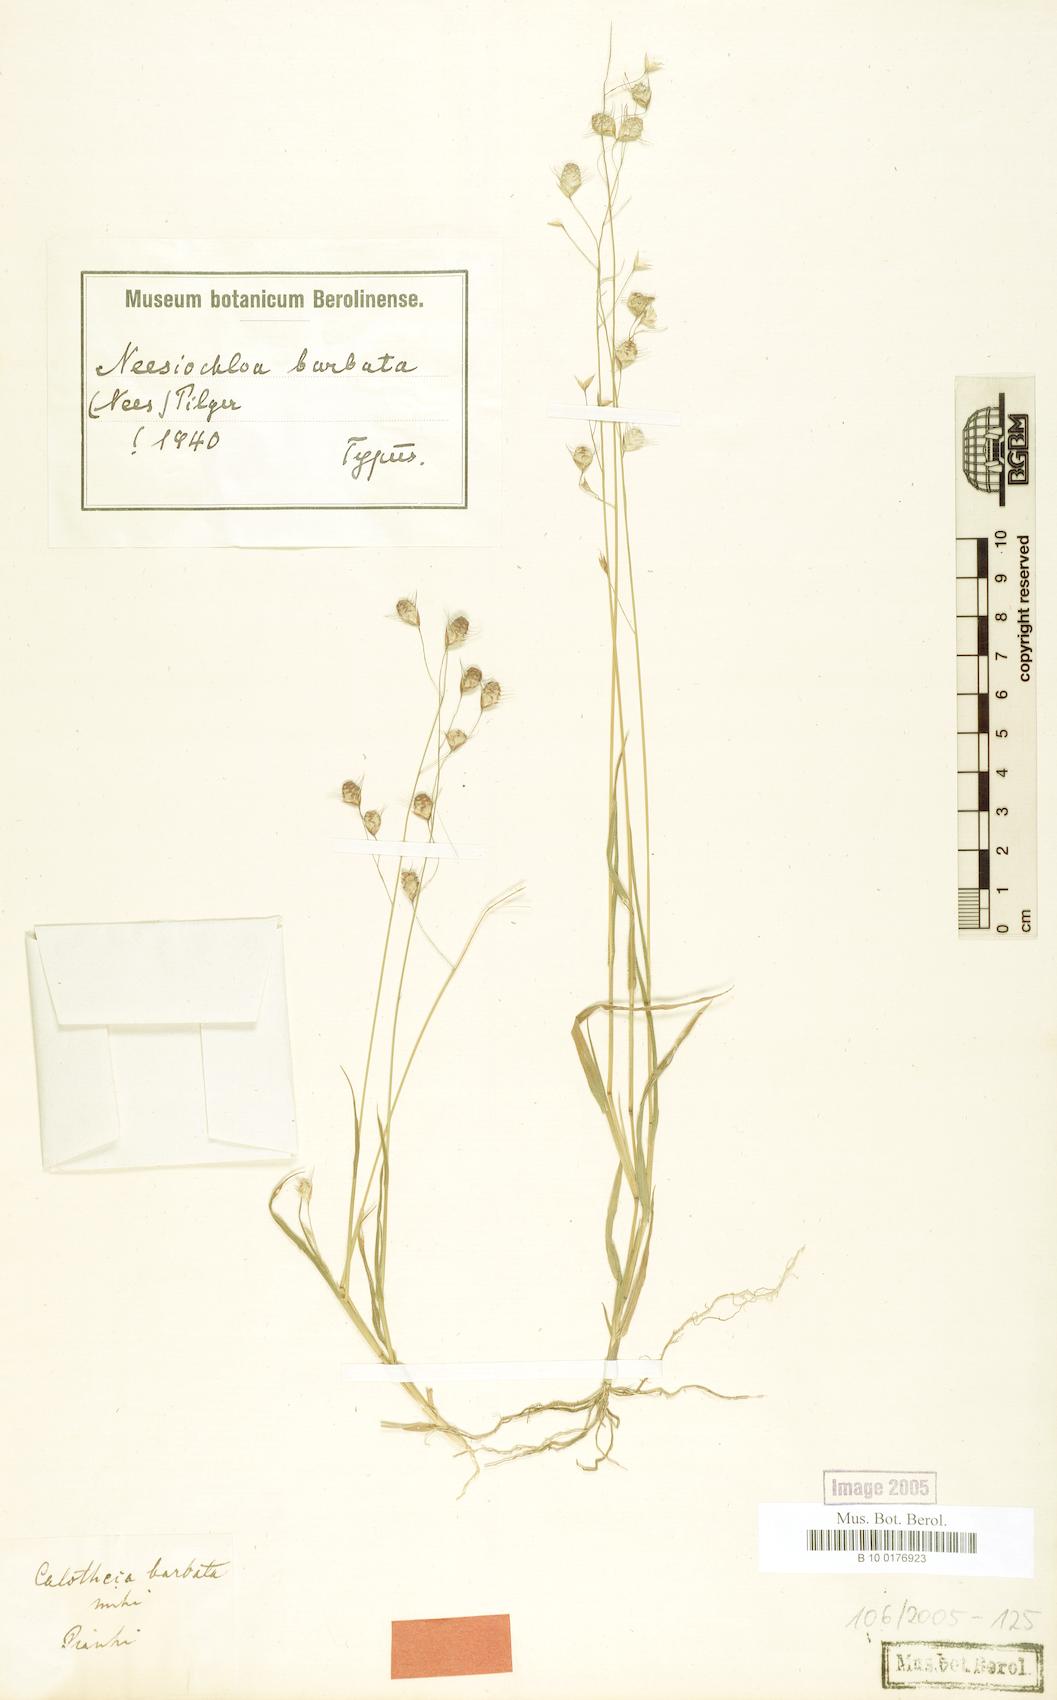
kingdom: Plantae
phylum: Tracheophyta
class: Liliopsida
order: Poales
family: Poaceae
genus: Neesiochloa
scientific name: Neesiochloa barbata
